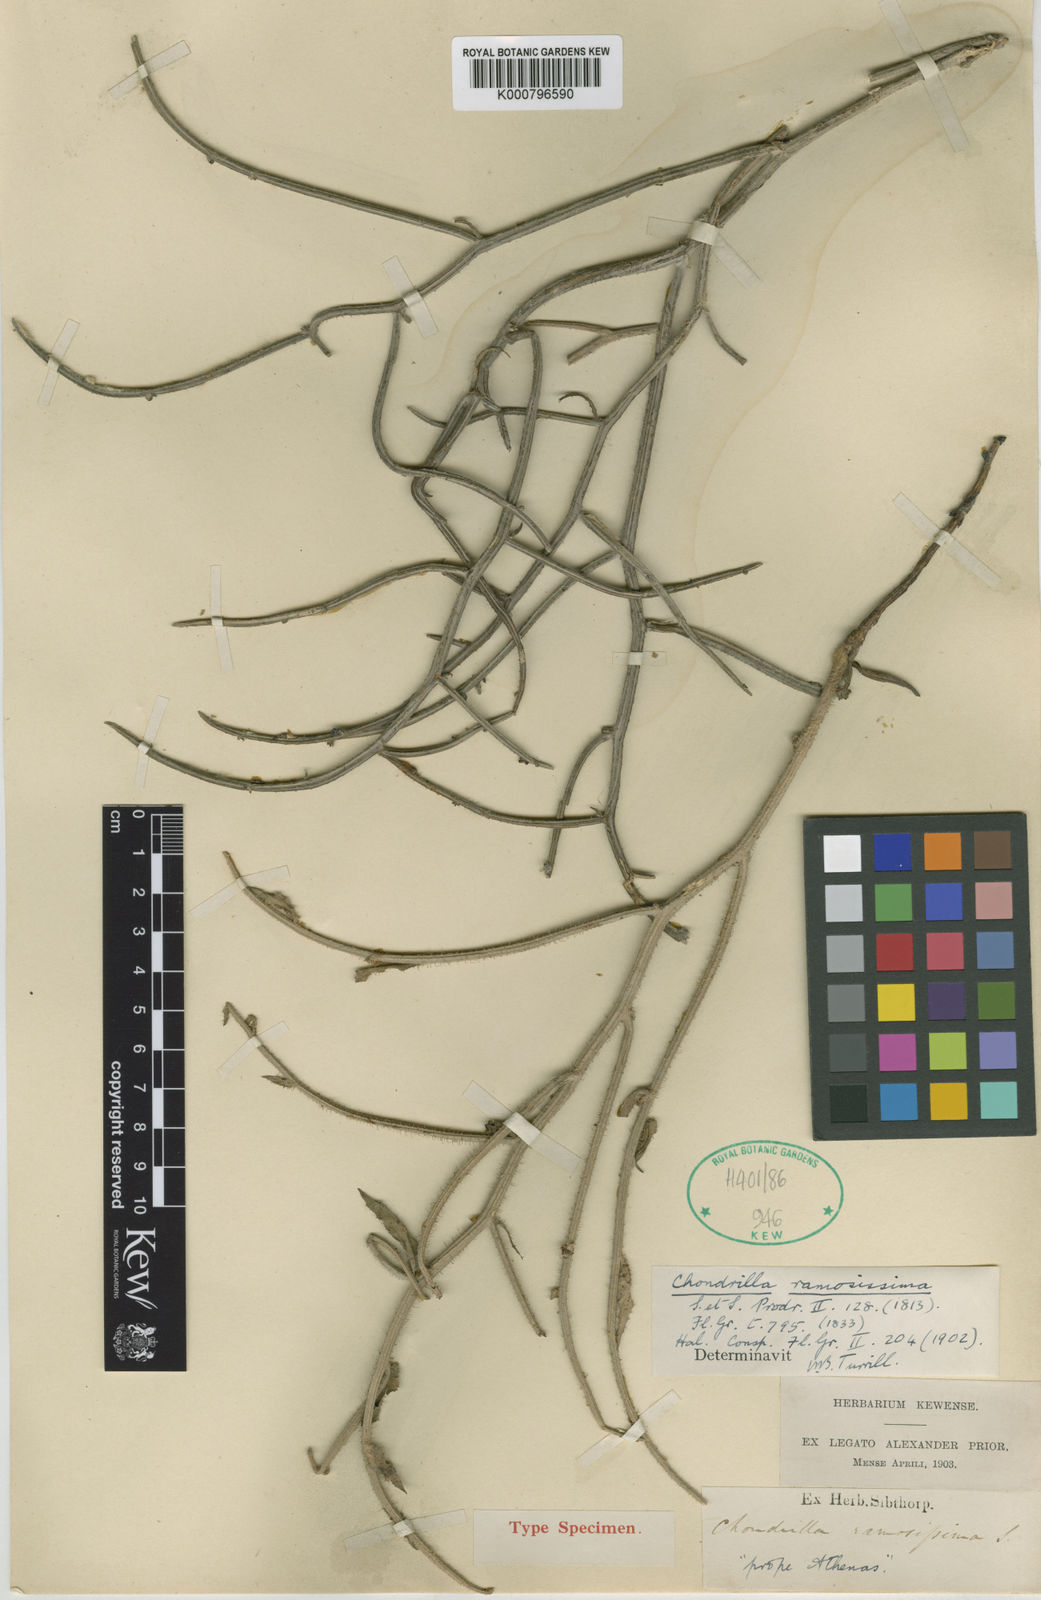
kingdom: Plantae
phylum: Tracheophyta
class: Magnoliopsida
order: Asterales
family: Asteraceae
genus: Chondrilla
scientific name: Chondrilla ramosissima
